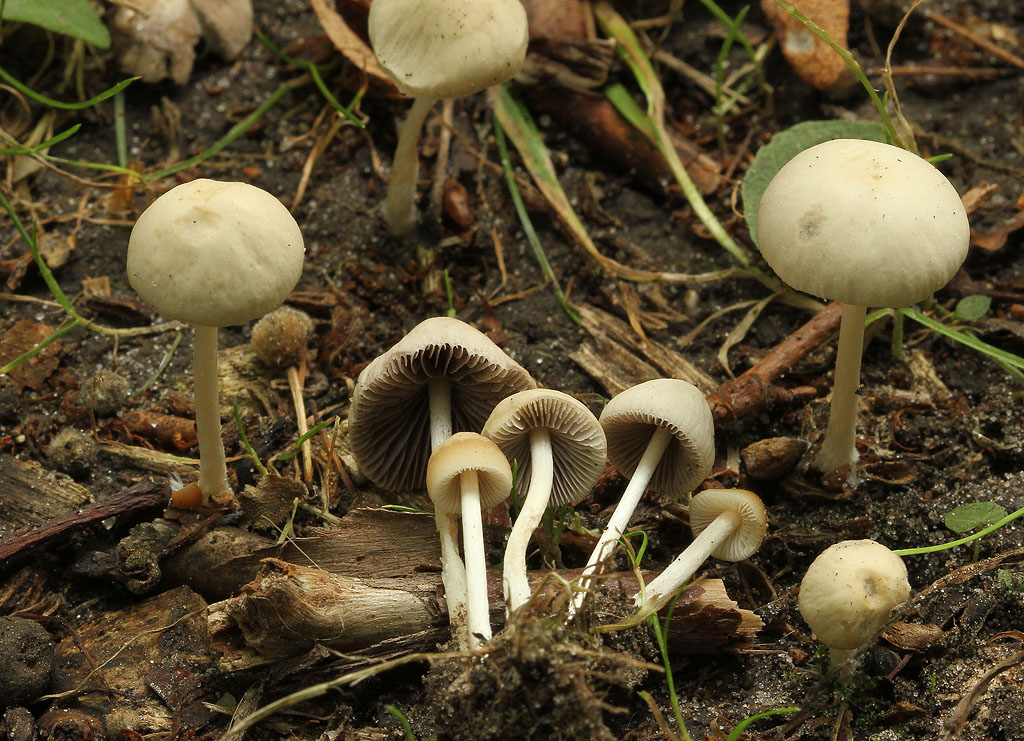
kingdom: Fungi
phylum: Basidiomycota
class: Agaricomycetes
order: Agaricales
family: Psathyrellaceae
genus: Psathyrella
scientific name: Psathyrella pseudogracilis
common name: slank mørkhat
